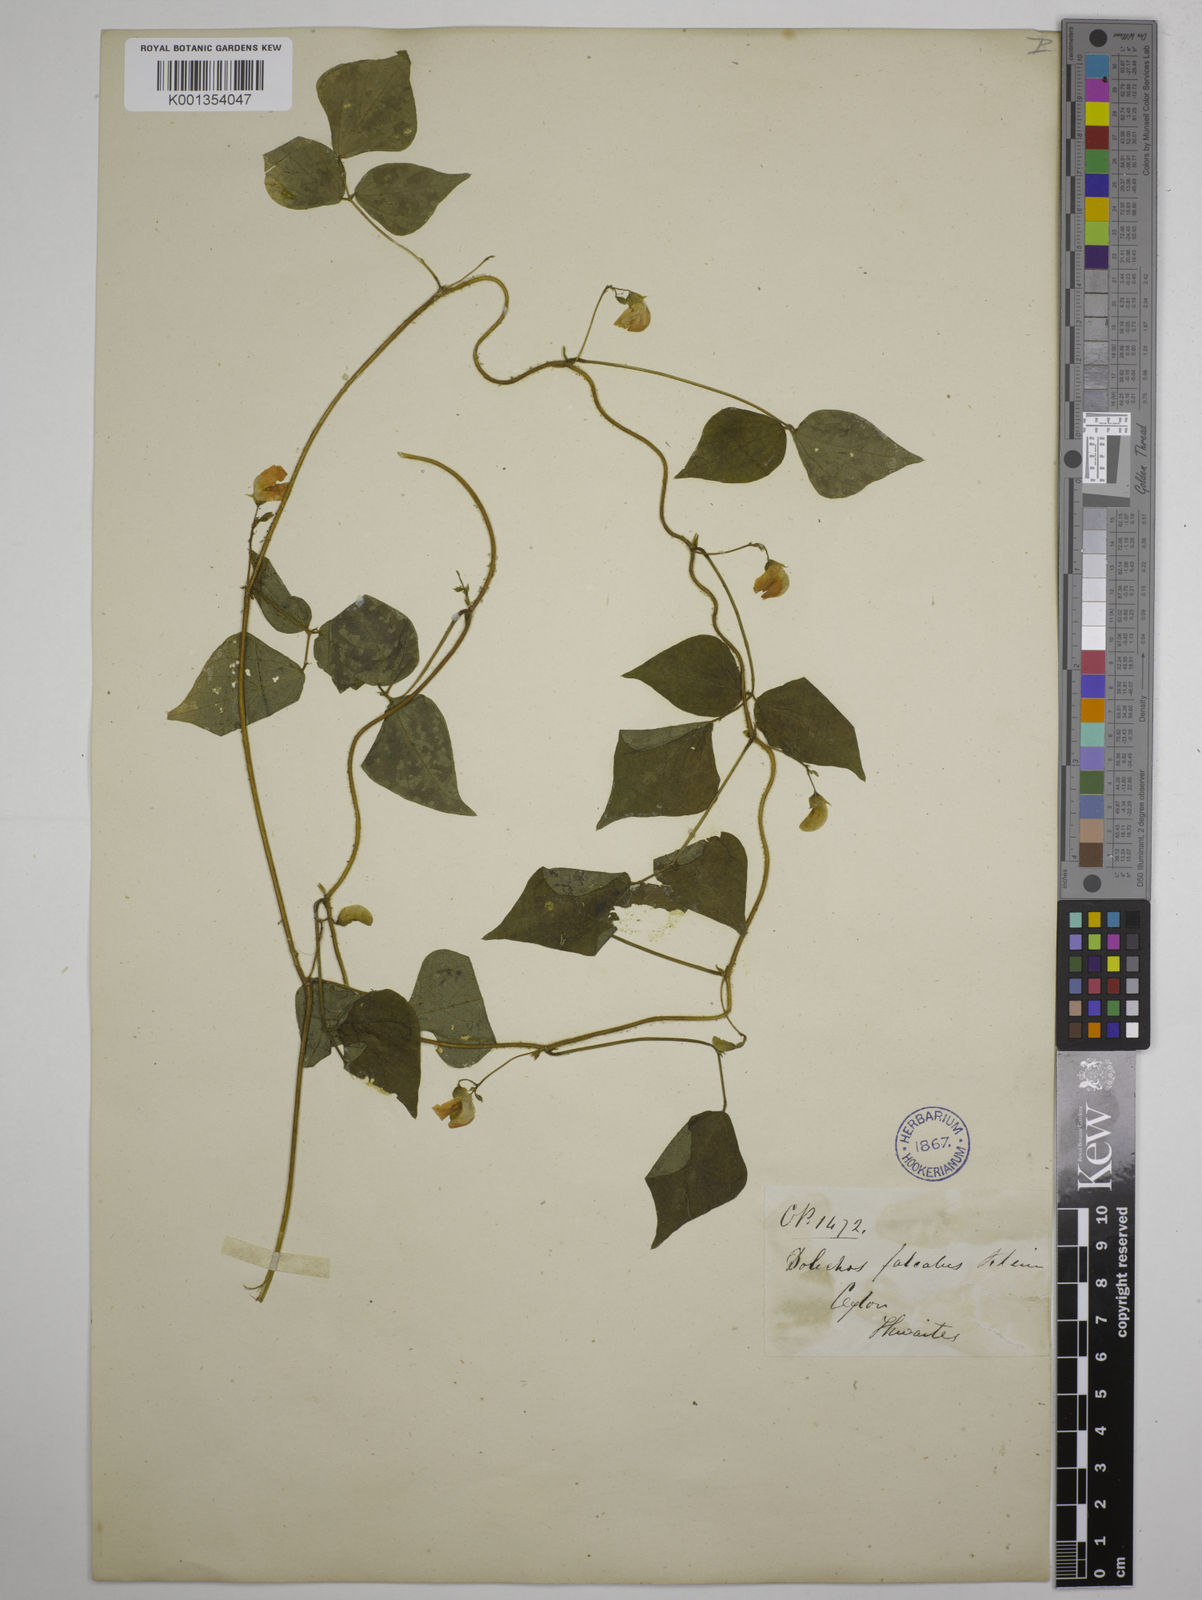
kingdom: Plantae
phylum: Tracheophyta
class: Magnoliopsida
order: Fabales
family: Fabaceae
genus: Dolichos
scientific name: Dolichos
